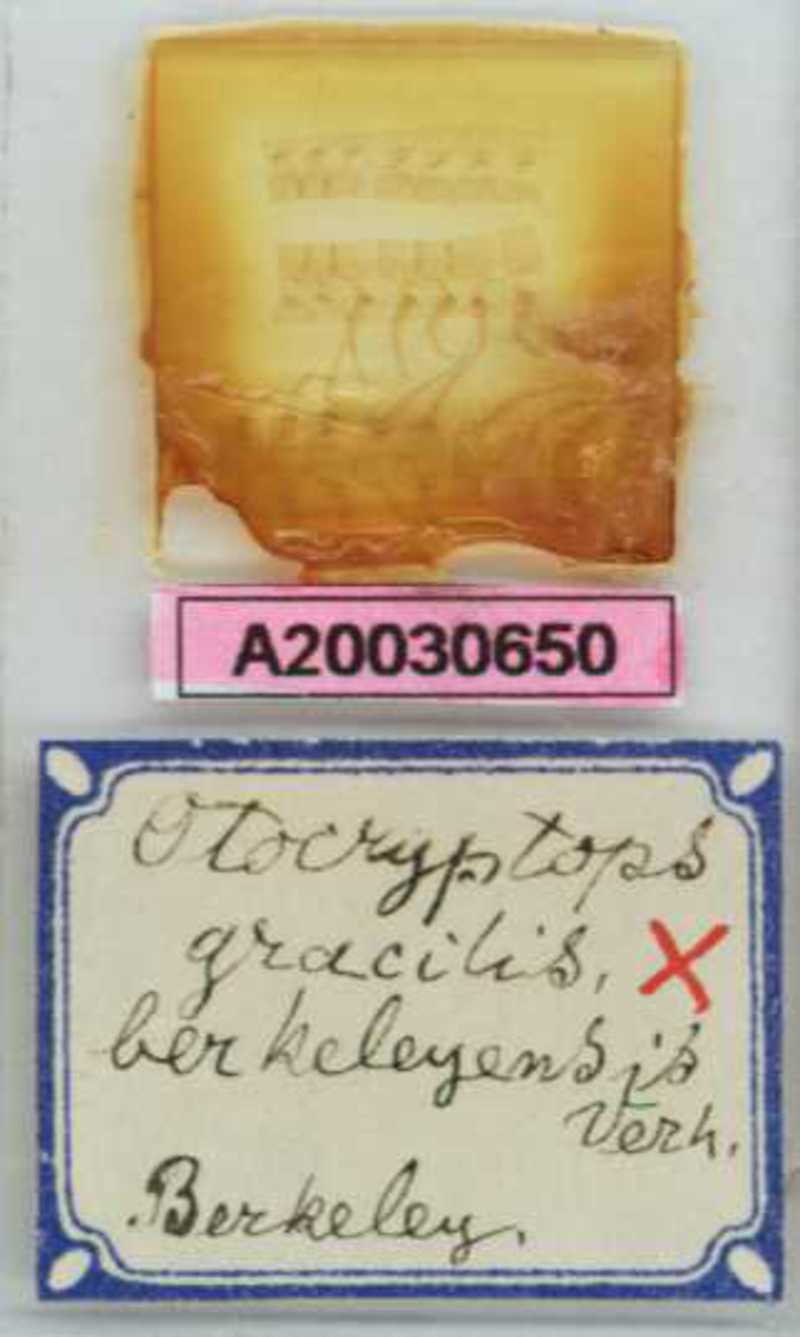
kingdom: Animalia
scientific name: Animalia
